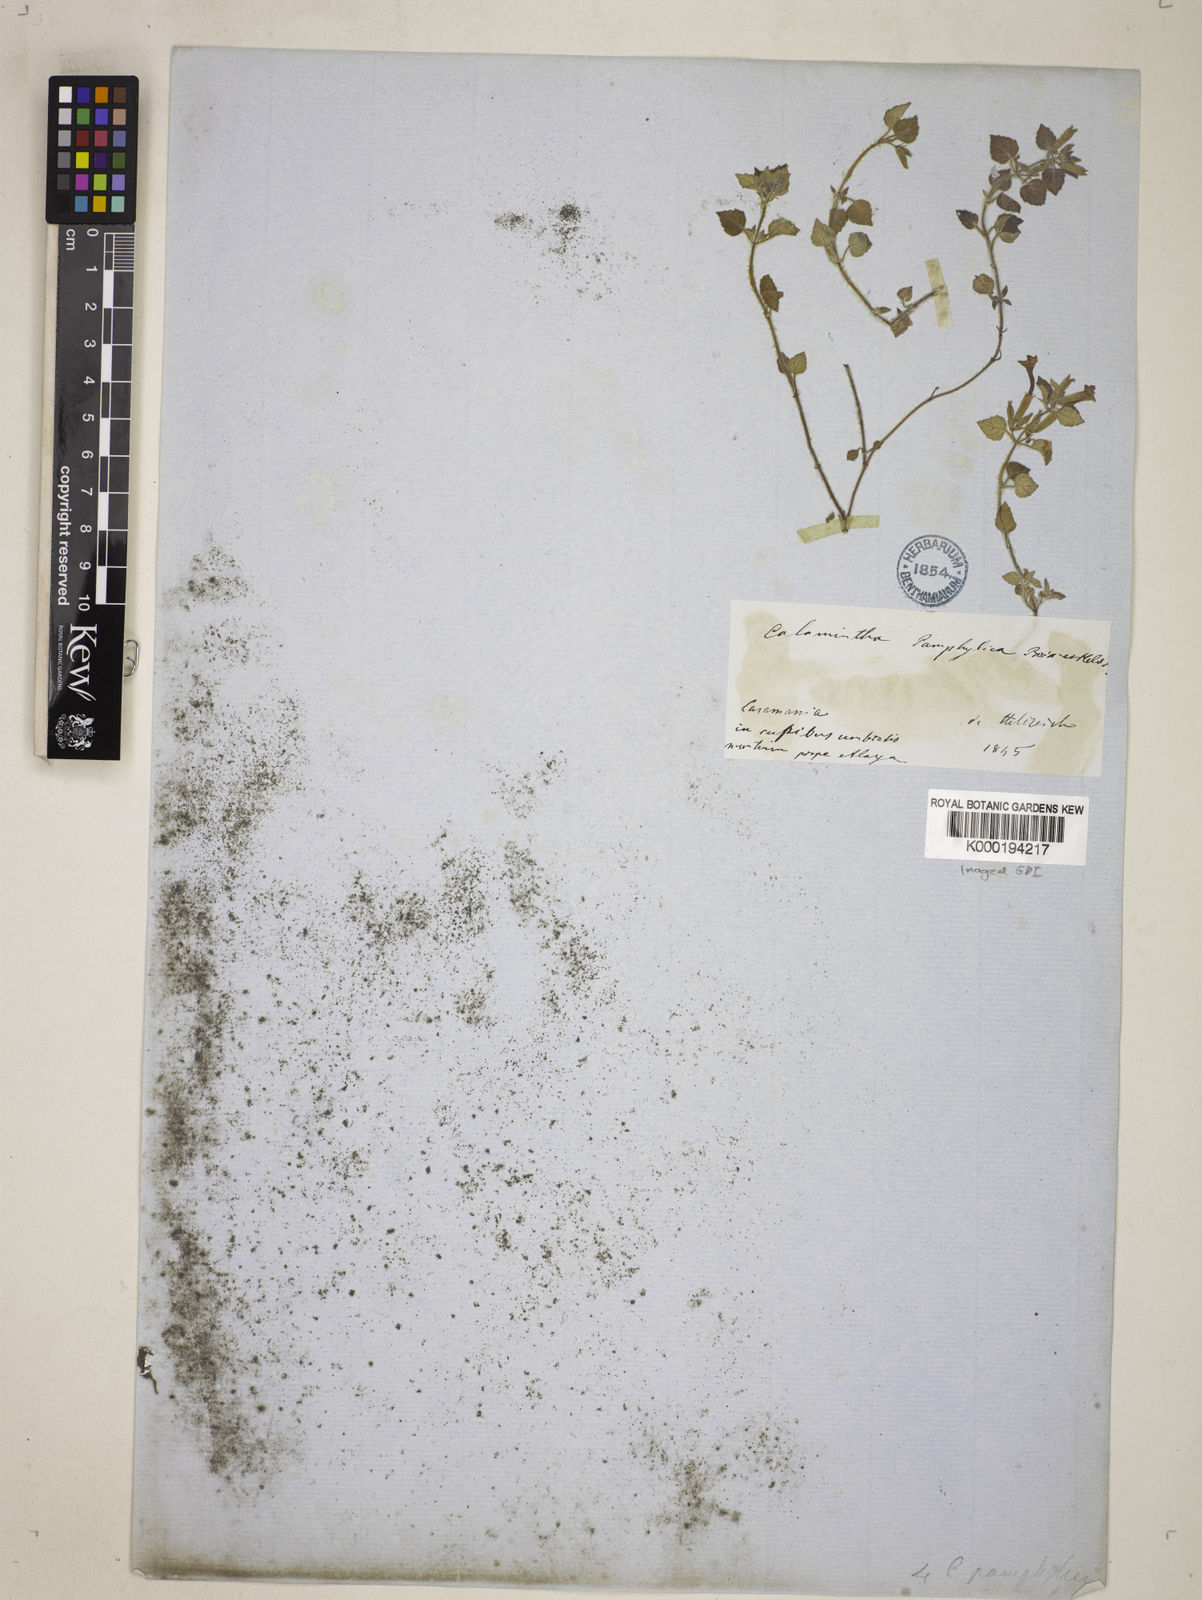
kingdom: Plantae
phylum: Tracheophyta
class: Magnoliopsida
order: Lamiales
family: Lamiaceae
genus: Clinopodium
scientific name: Clinopodium pamphylicum
